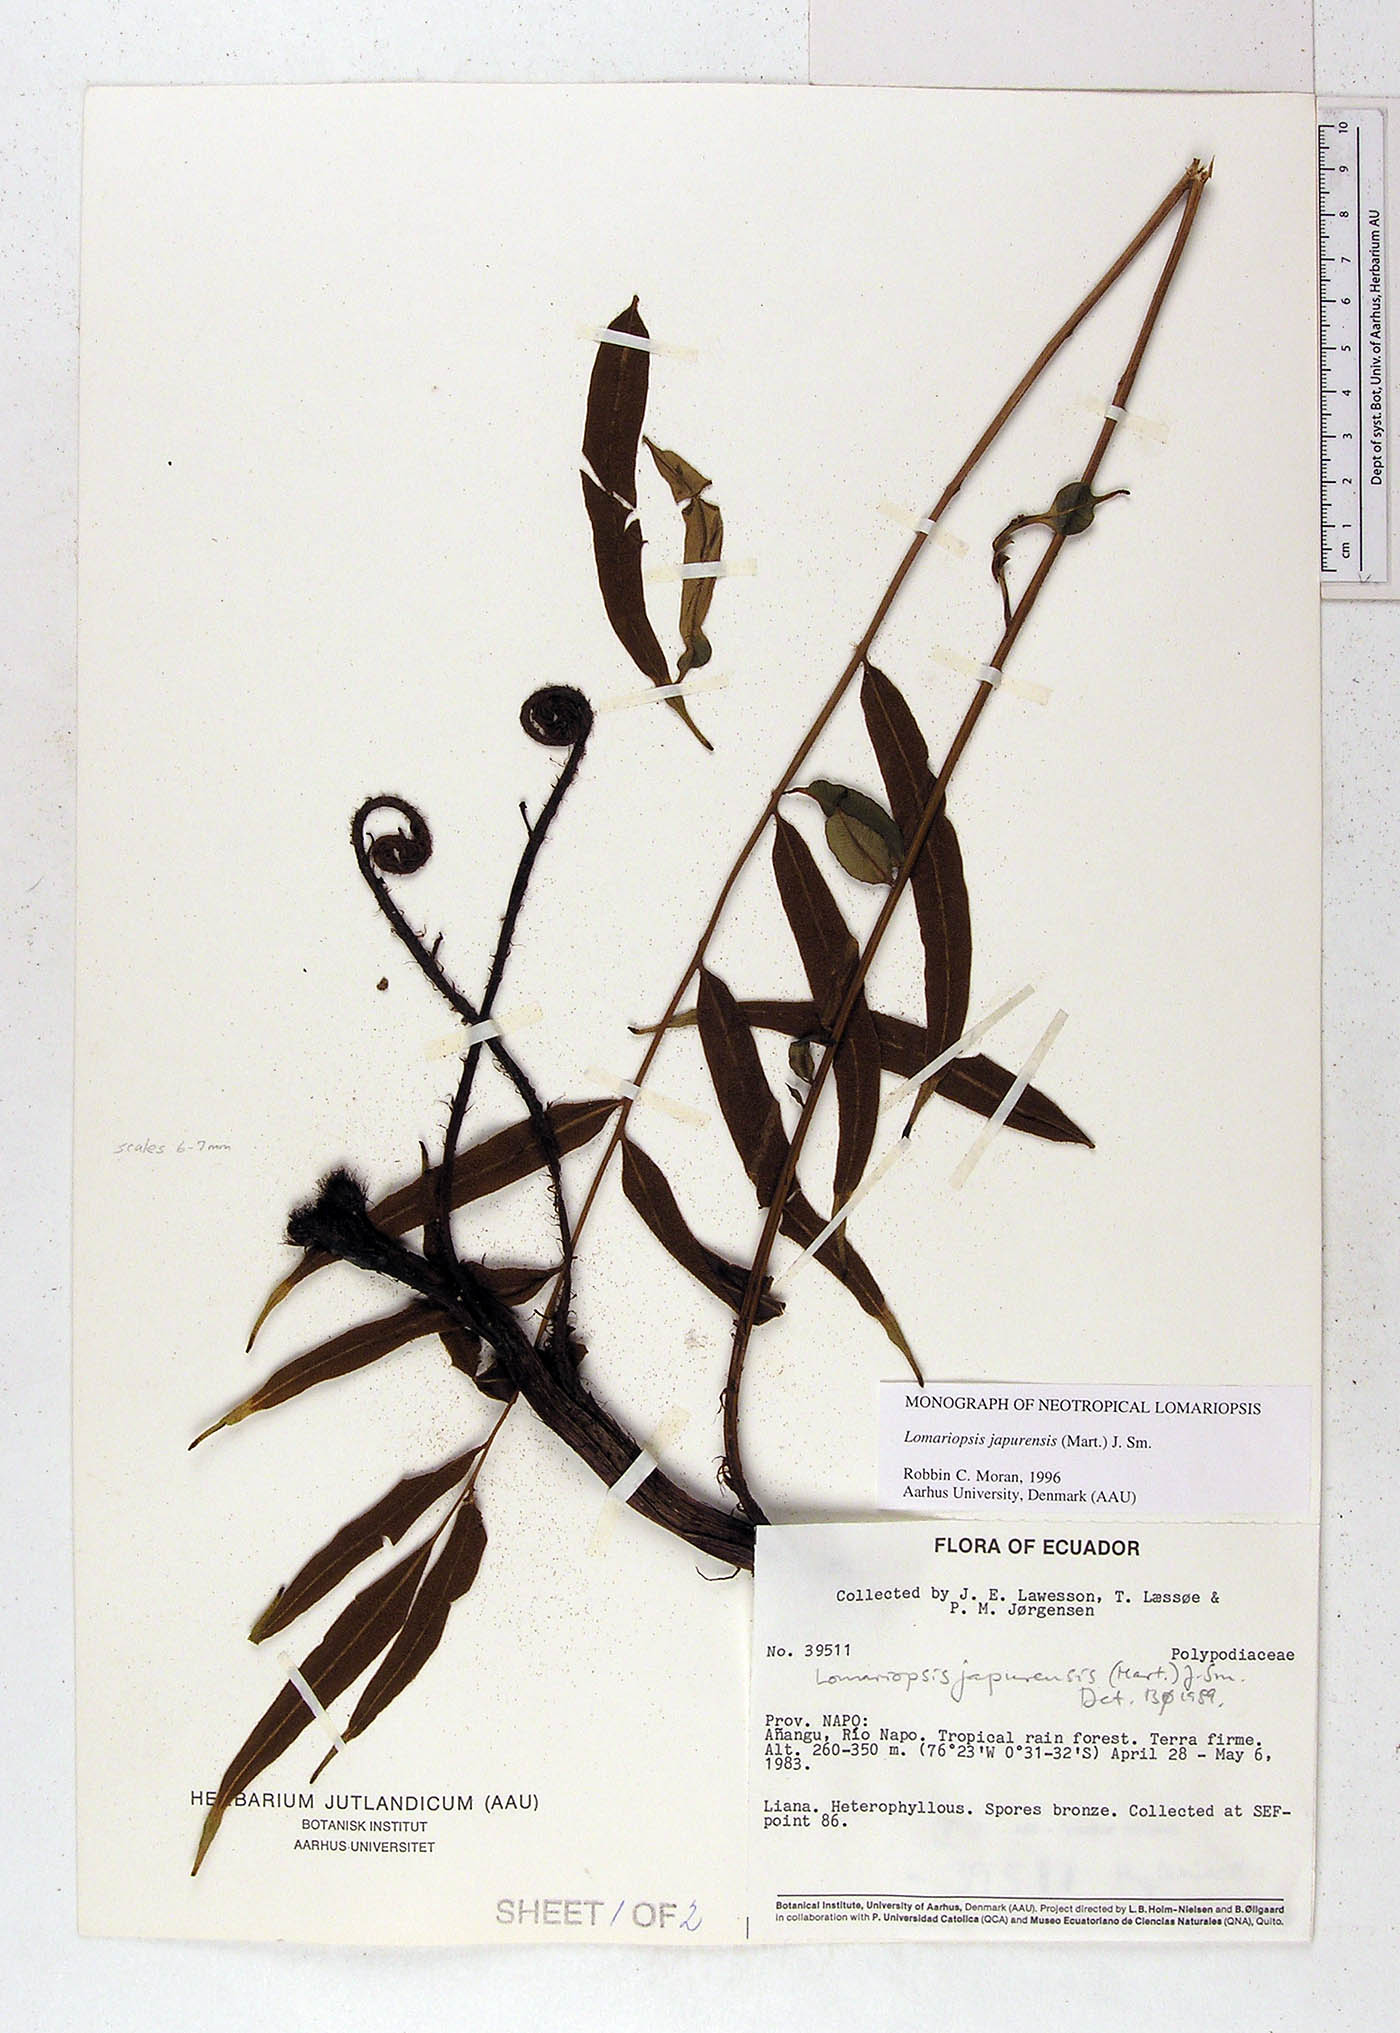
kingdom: Plantae
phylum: Tracheophyta
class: Polypodiopsida
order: Polypodiales
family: Lomariopsidaceae
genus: Lomariopsis
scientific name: Lomariopsis japurensis
